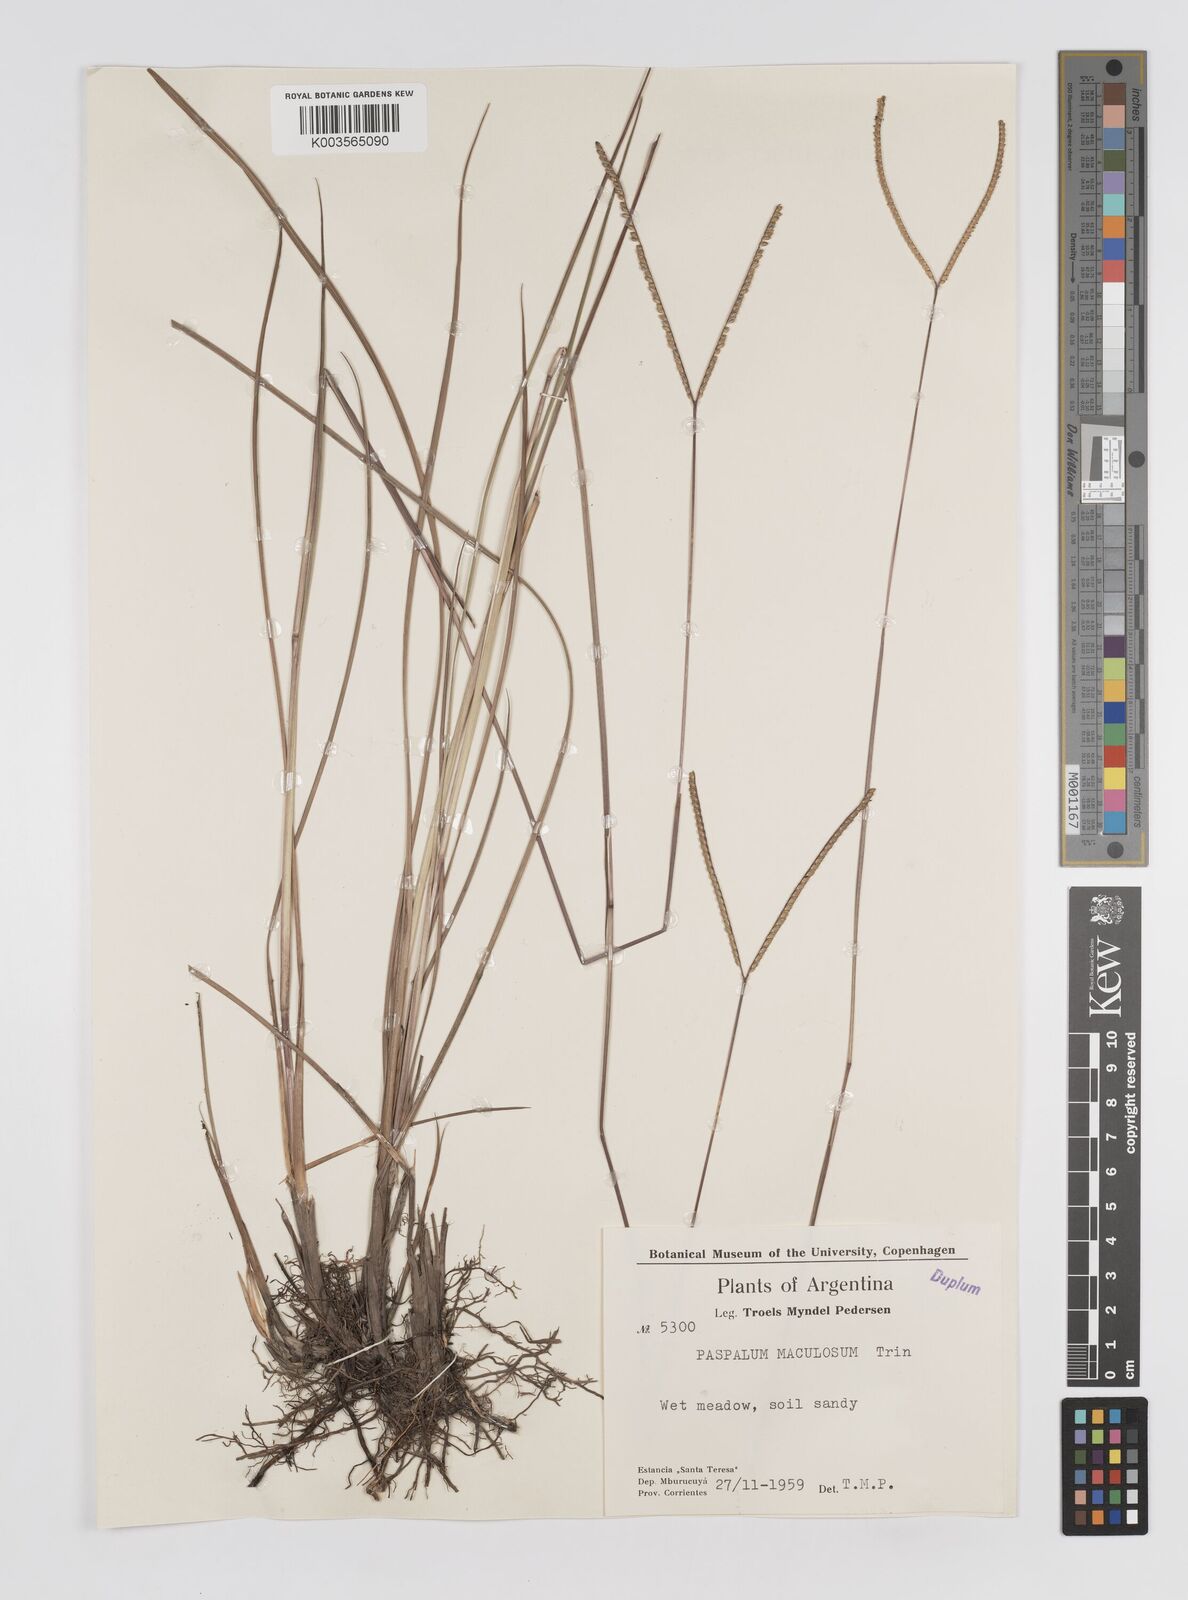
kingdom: Plantae
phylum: Tracheophyta
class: Liliopsida
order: Poales
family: Poaceae
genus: Paspalum
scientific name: Paspalum maculosum
